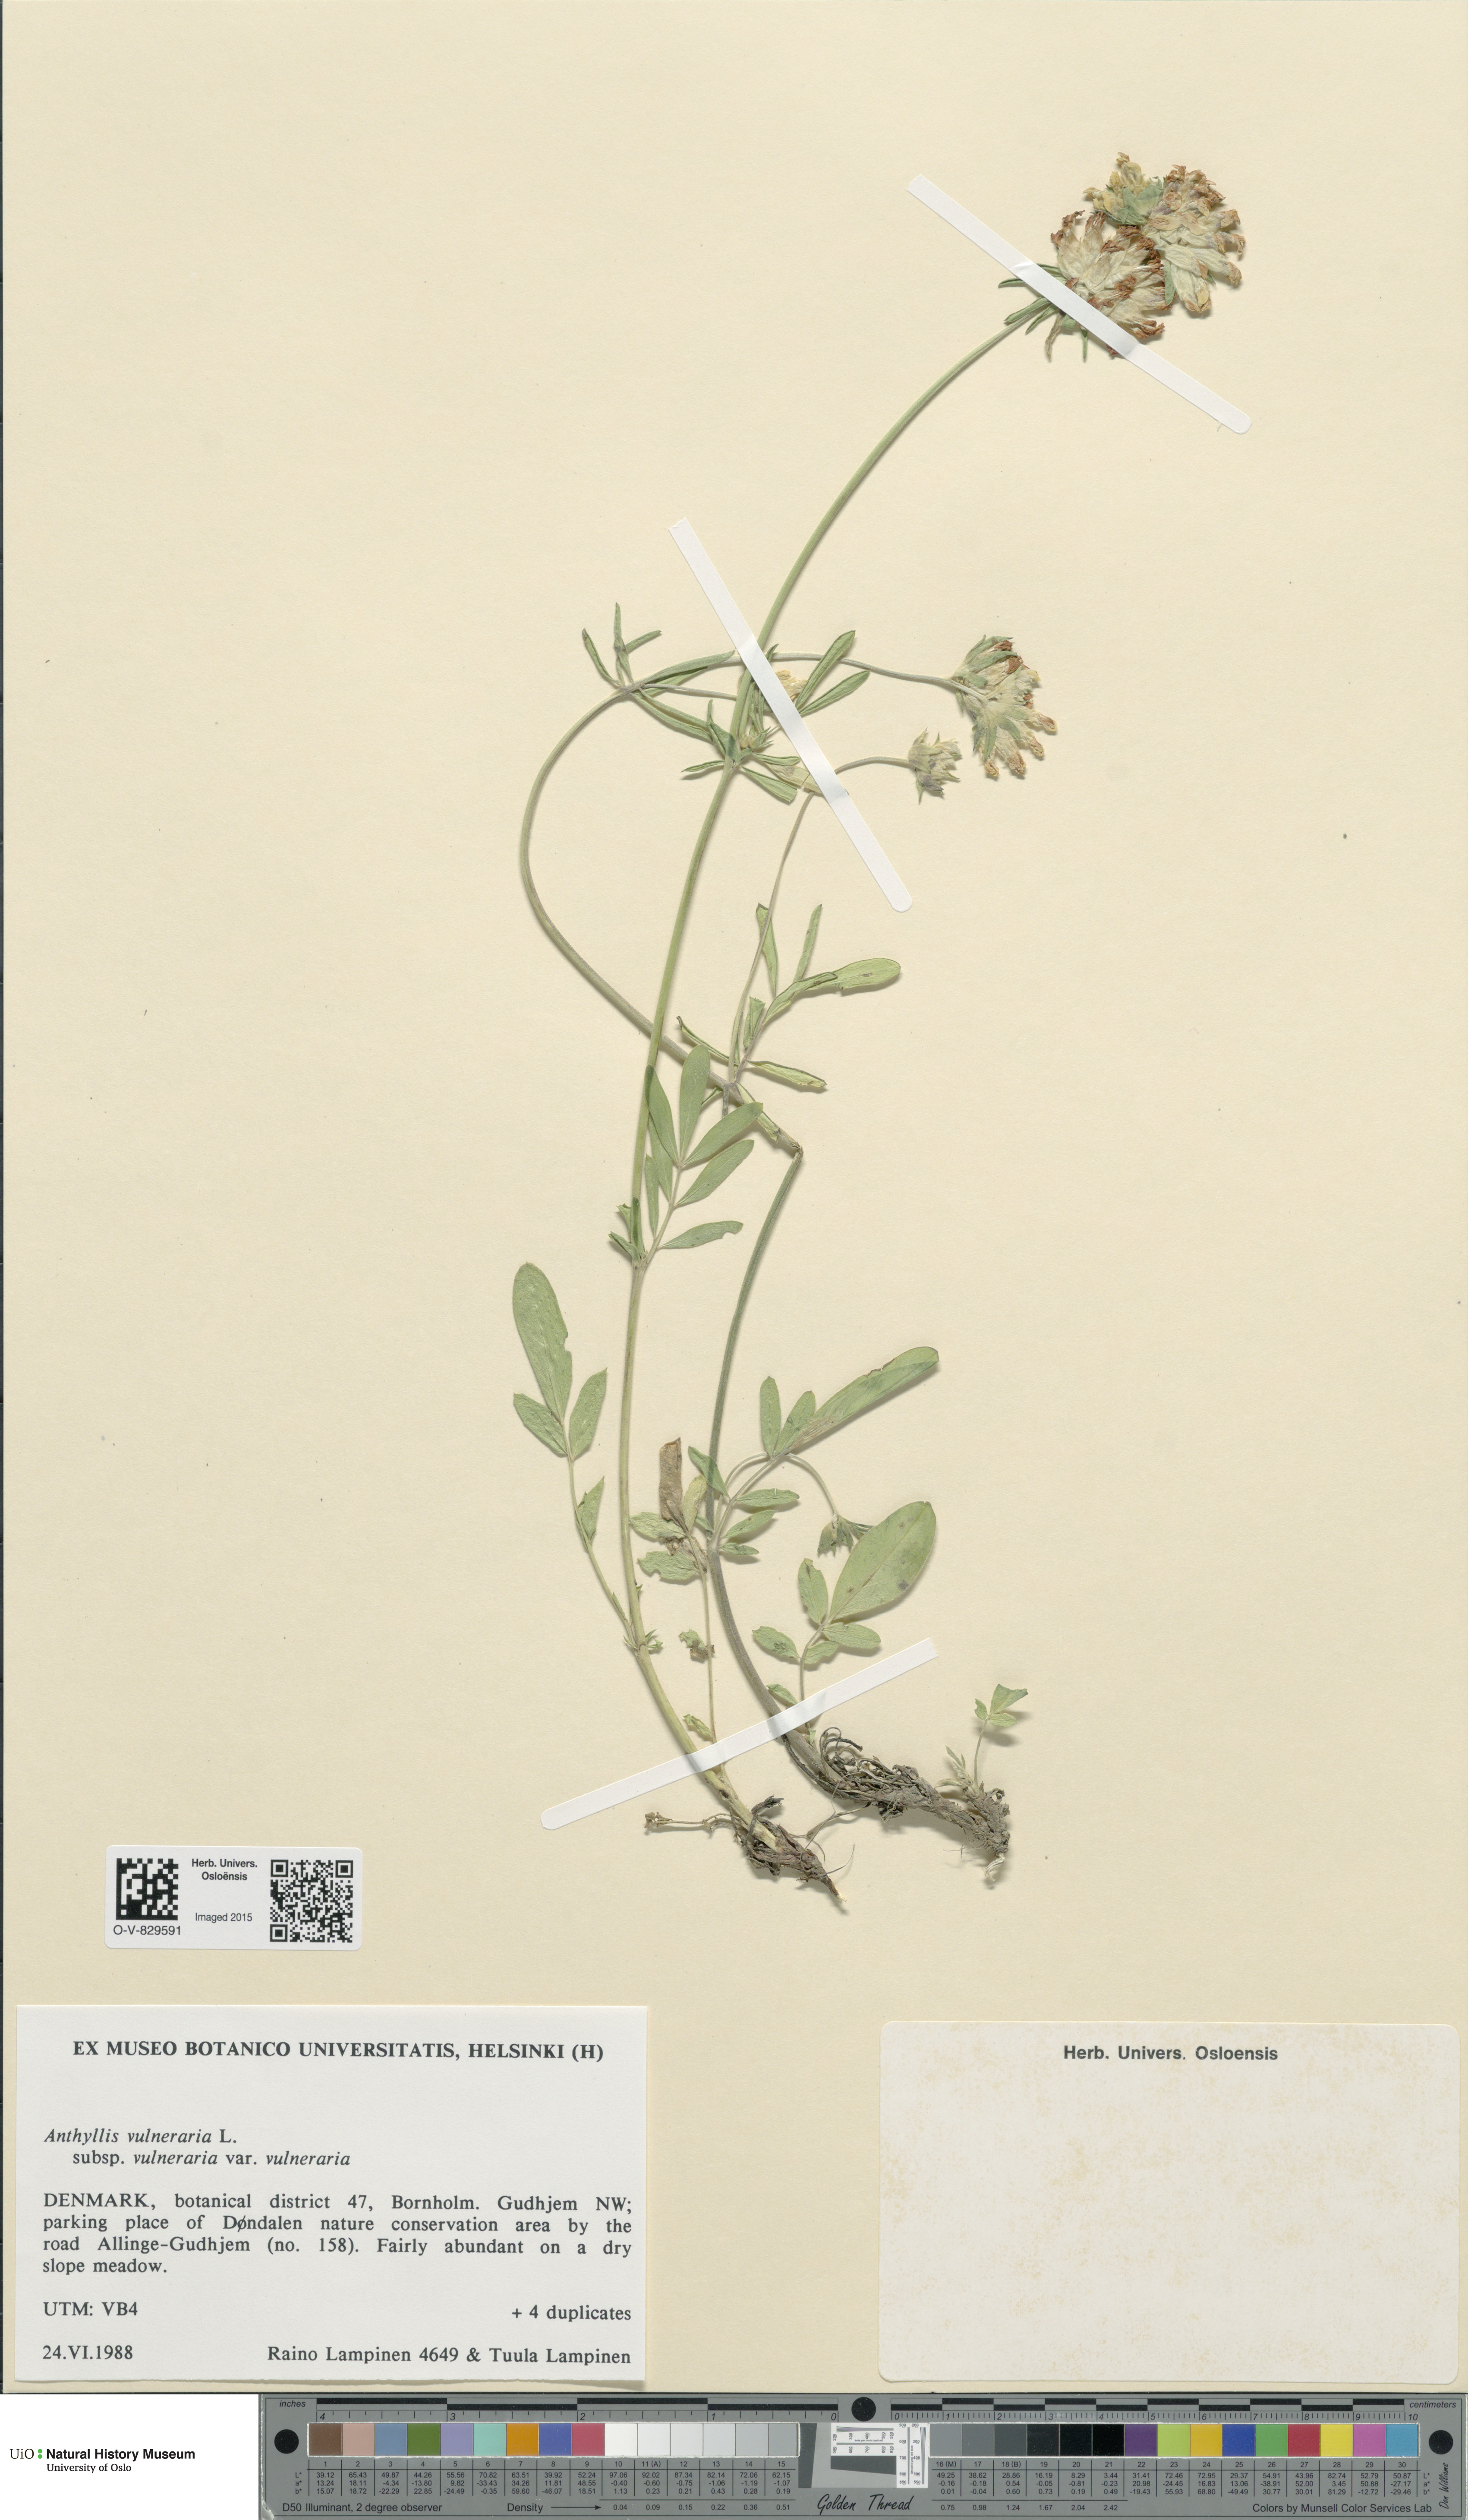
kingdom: Plantae
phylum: Tracheophyta
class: Magnoliopsida
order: Fabales
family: Fabaceae
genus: Anthyllis
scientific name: Anthyllis vulneraria
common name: Kidney vetch
